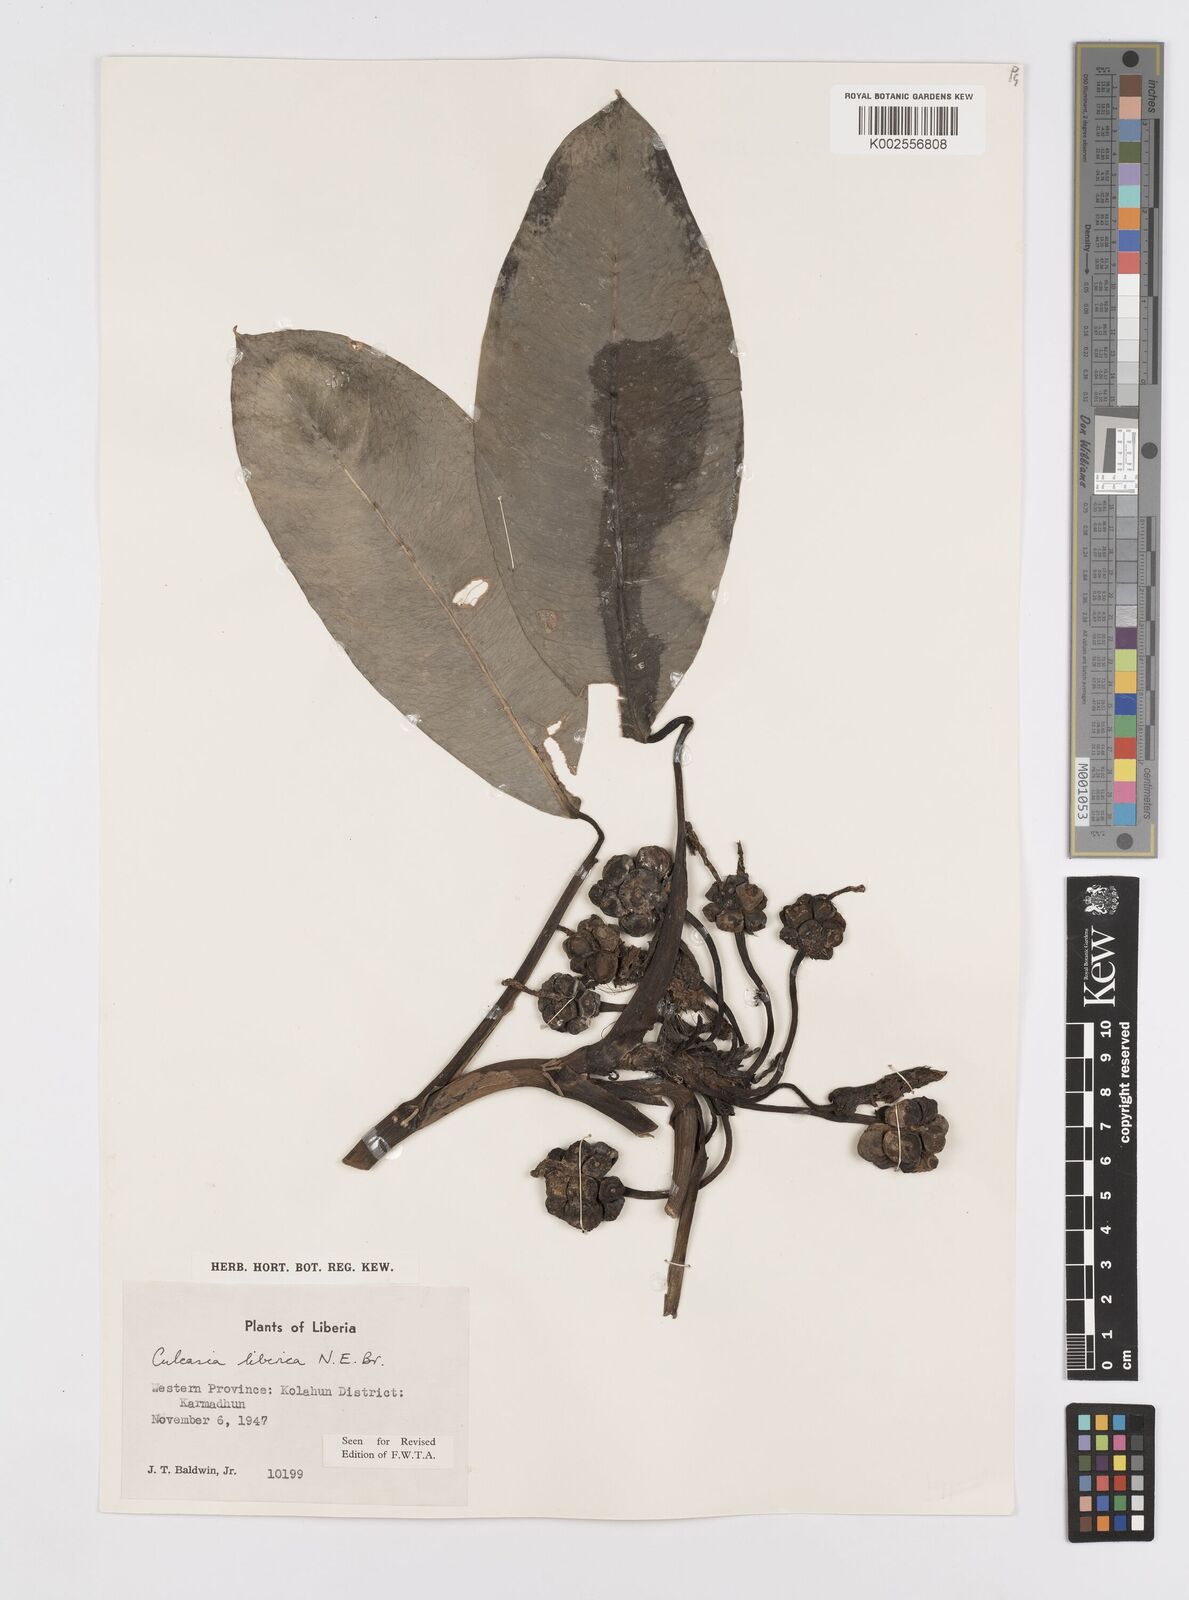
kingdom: Plantae
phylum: Tracheophyta
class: Liliopsida
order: Alismatales
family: Araceae
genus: Culcasia
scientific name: Culcasia liberica
